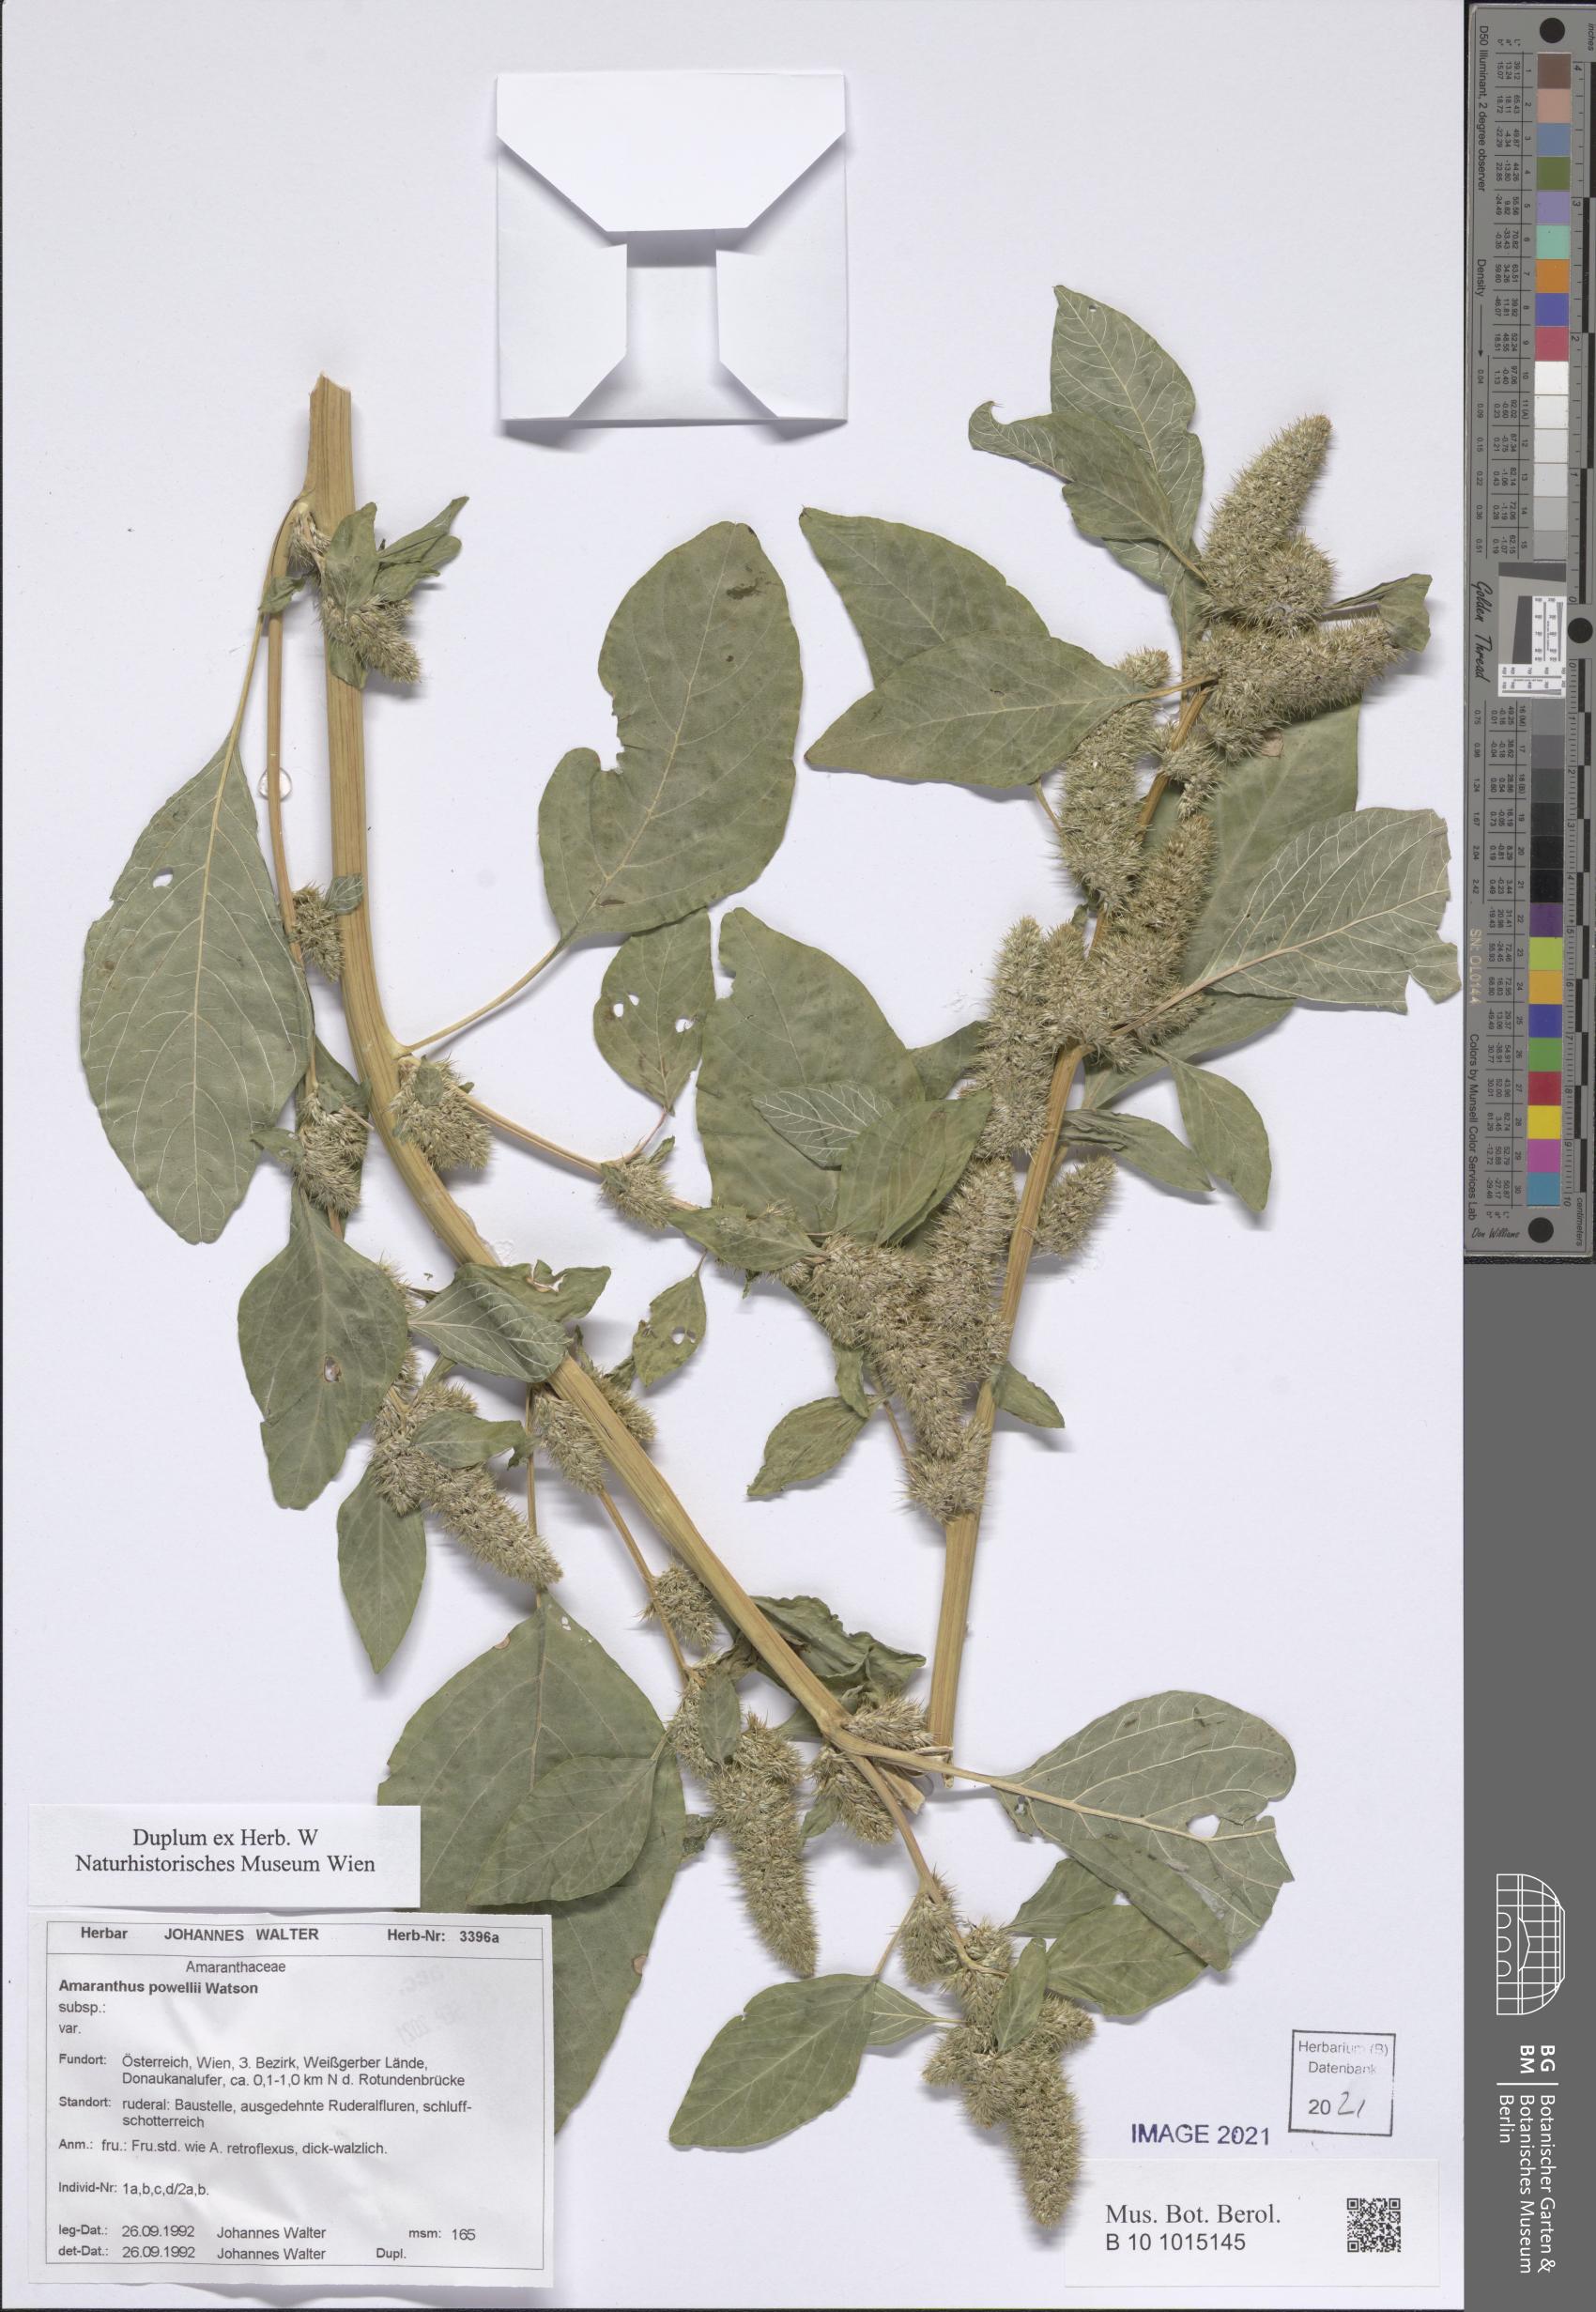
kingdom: Plantae
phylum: Tracheophyta
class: Magnoliopsida
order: Caryophyllales
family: Amaranthaceae
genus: Amaranthus
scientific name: Amaranthus powellii
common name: Powell's amaranth
